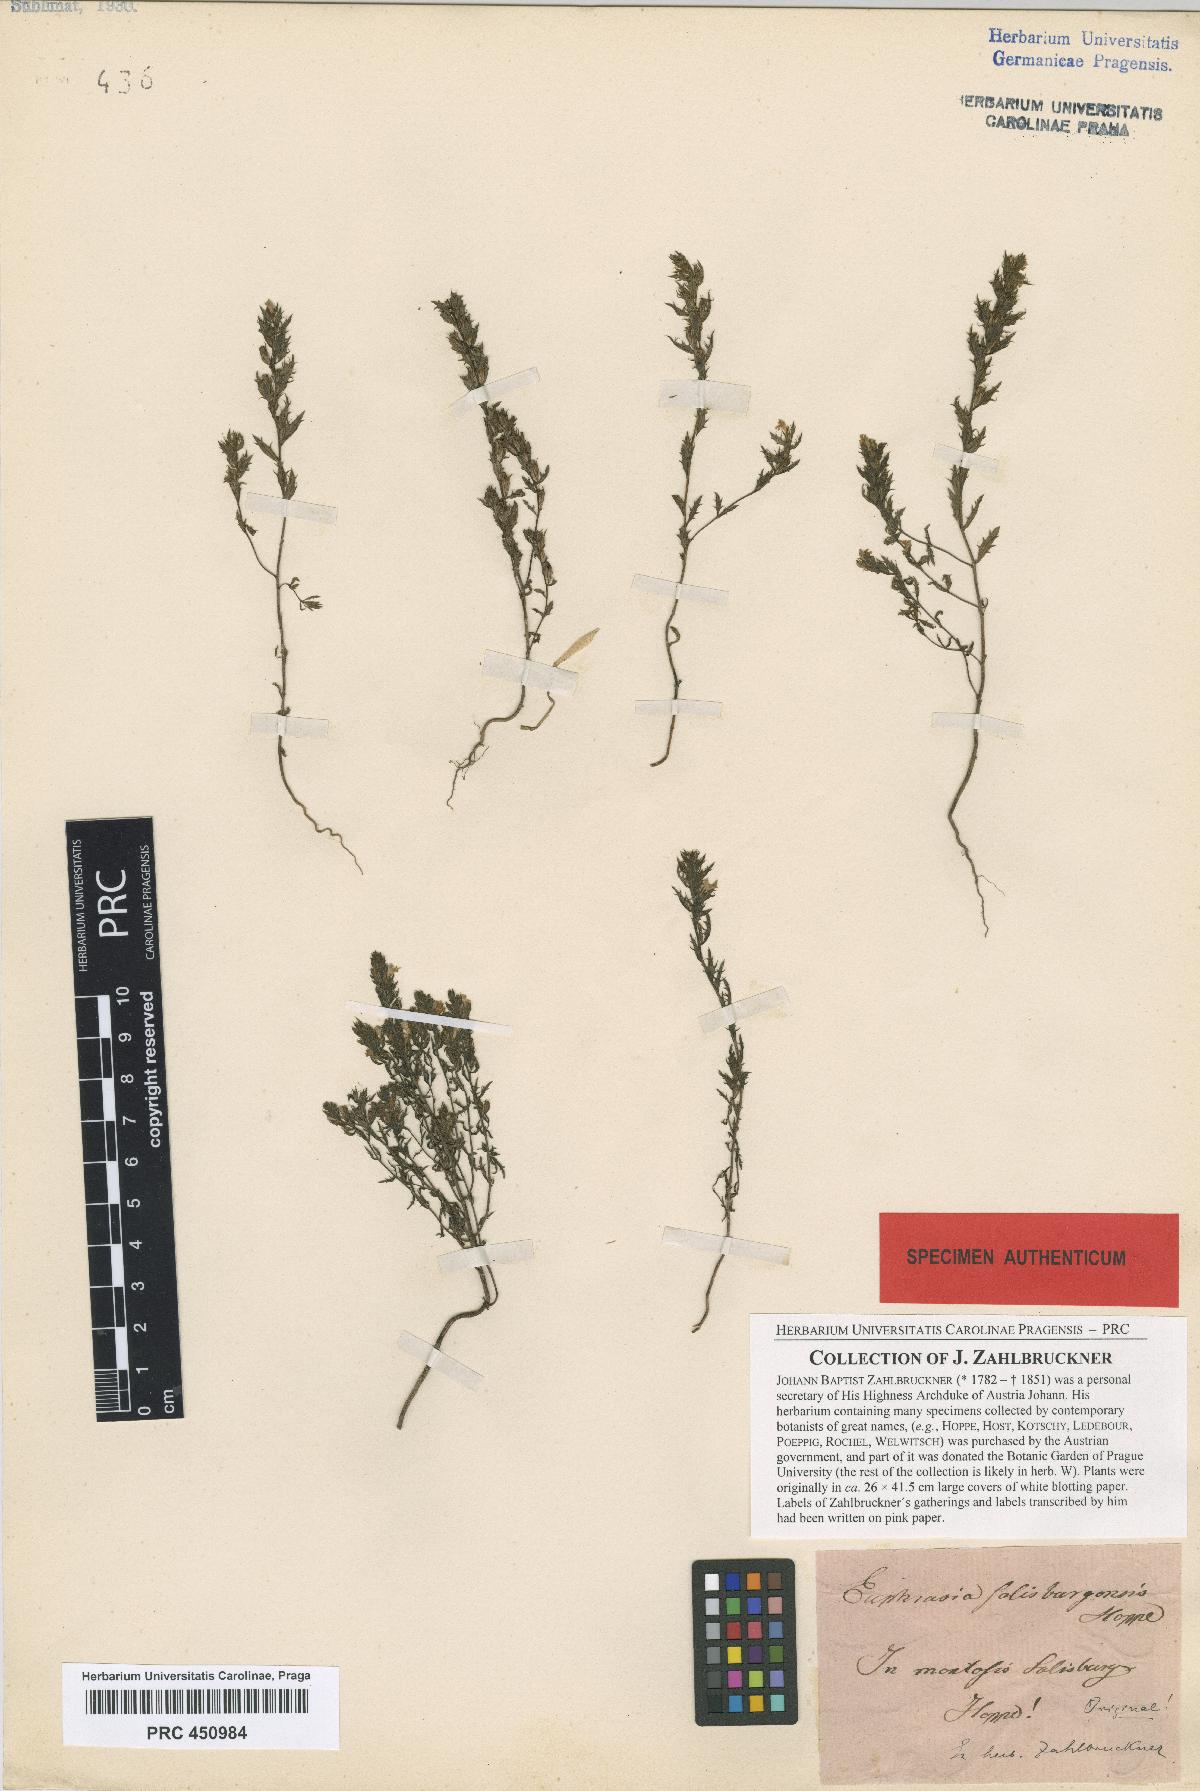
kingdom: Plantae
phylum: Tracheophyta
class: Magnoliopsida
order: Lamiales
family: Orobanchaceae
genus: Euphrasia
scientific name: Euphrasia salisburgensis
